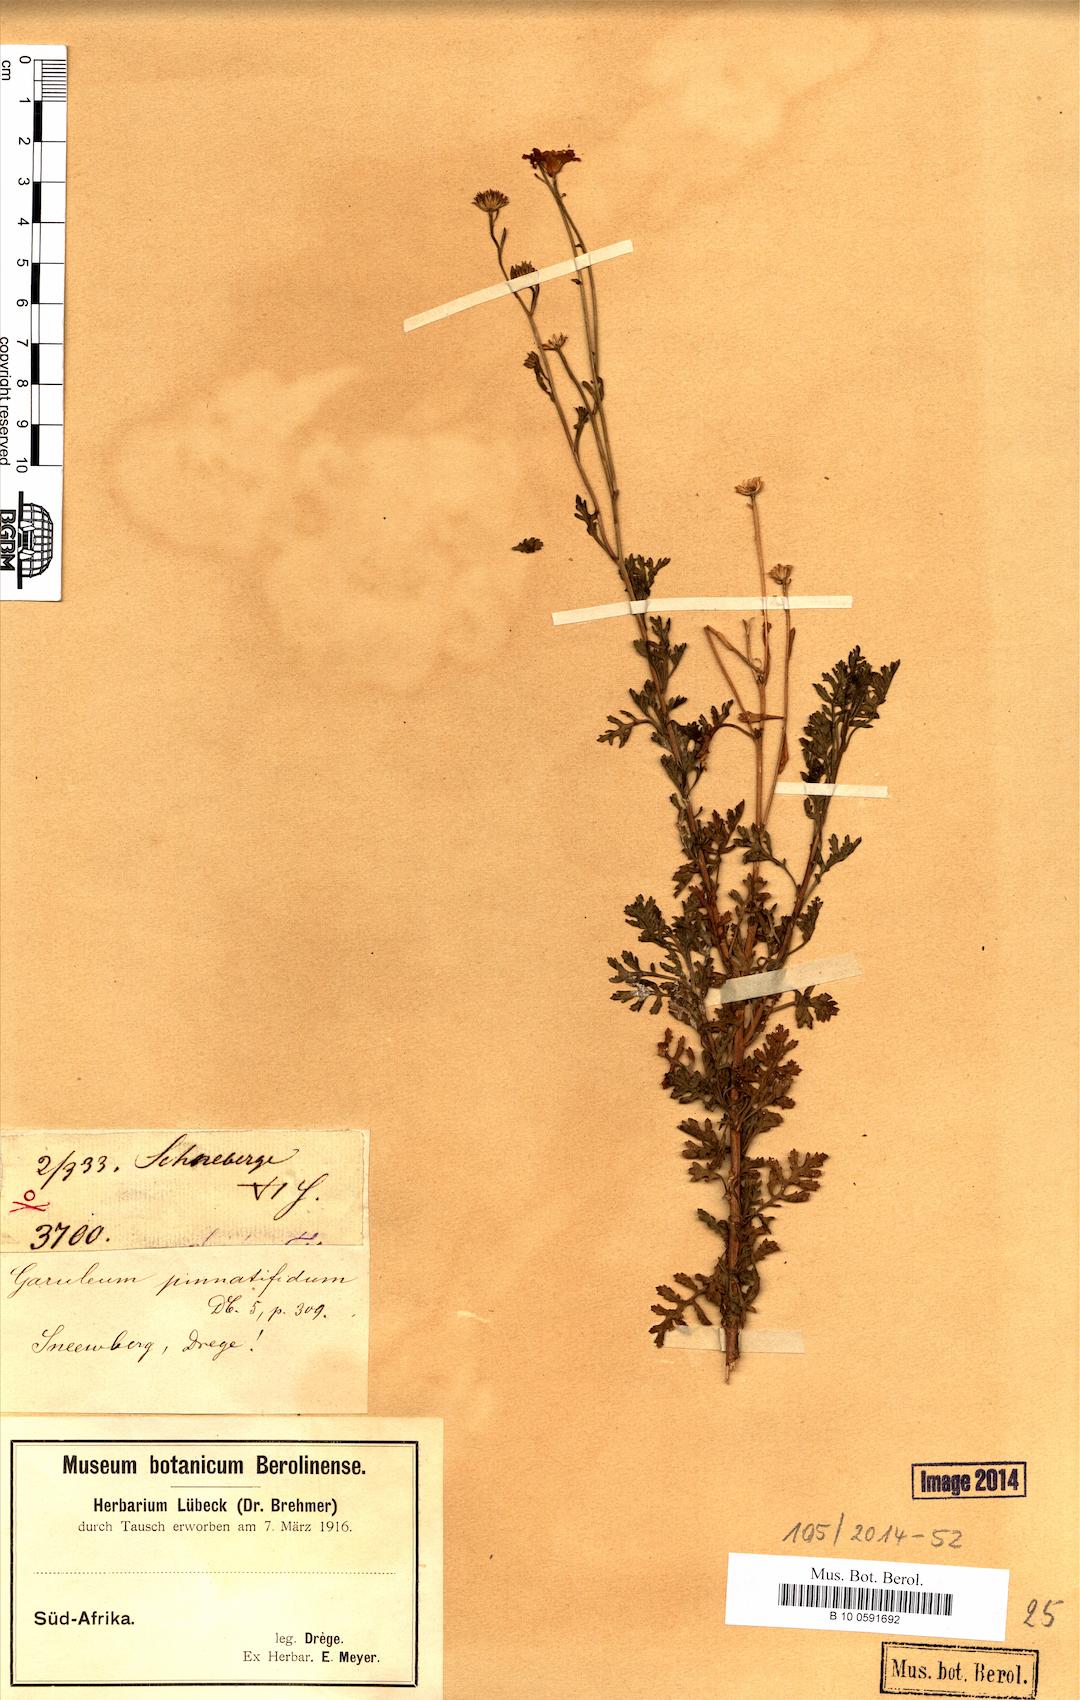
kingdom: Plantae
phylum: Tracheophyta
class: Magnoliopsida
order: Asterales
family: Asteraceae
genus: Garuleum
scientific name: Garuleum pinnatifidum
